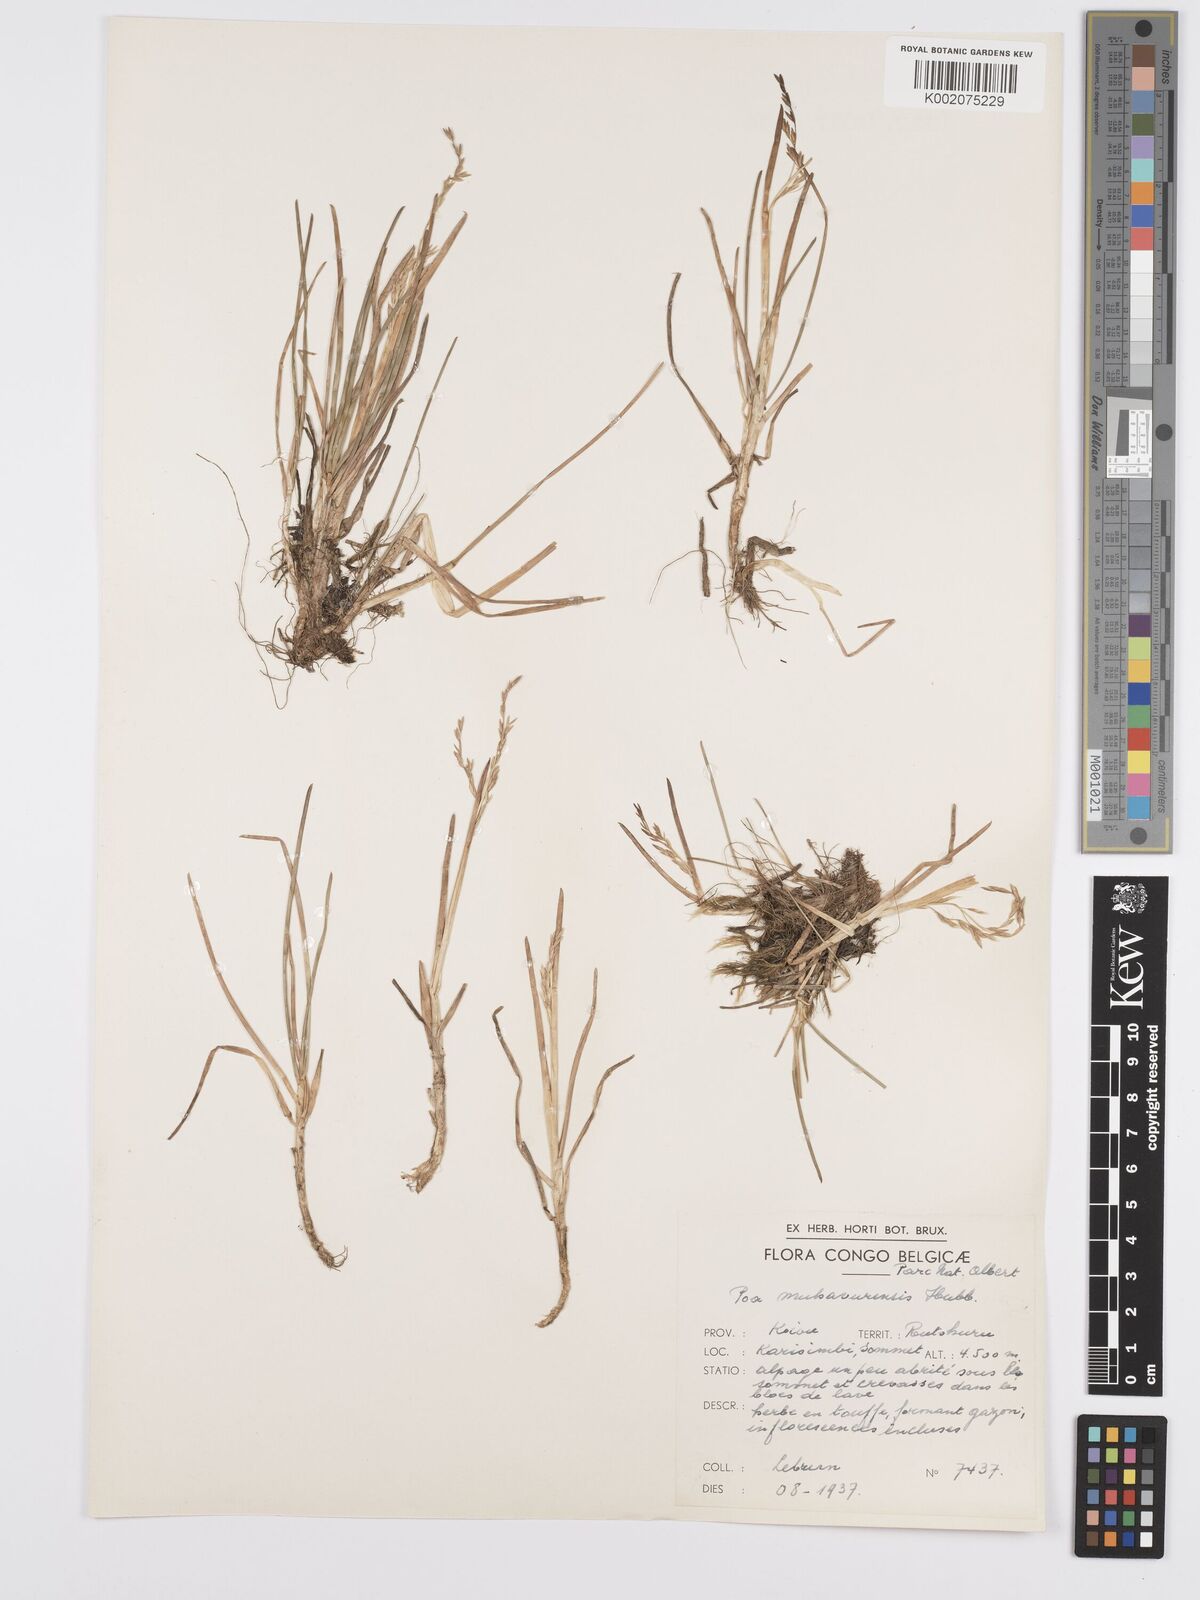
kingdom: Plantae
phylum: Tracheophyta
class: Liliopsida
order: Poales
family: Poaceae
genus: Poa
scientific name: Poa schimperiana
